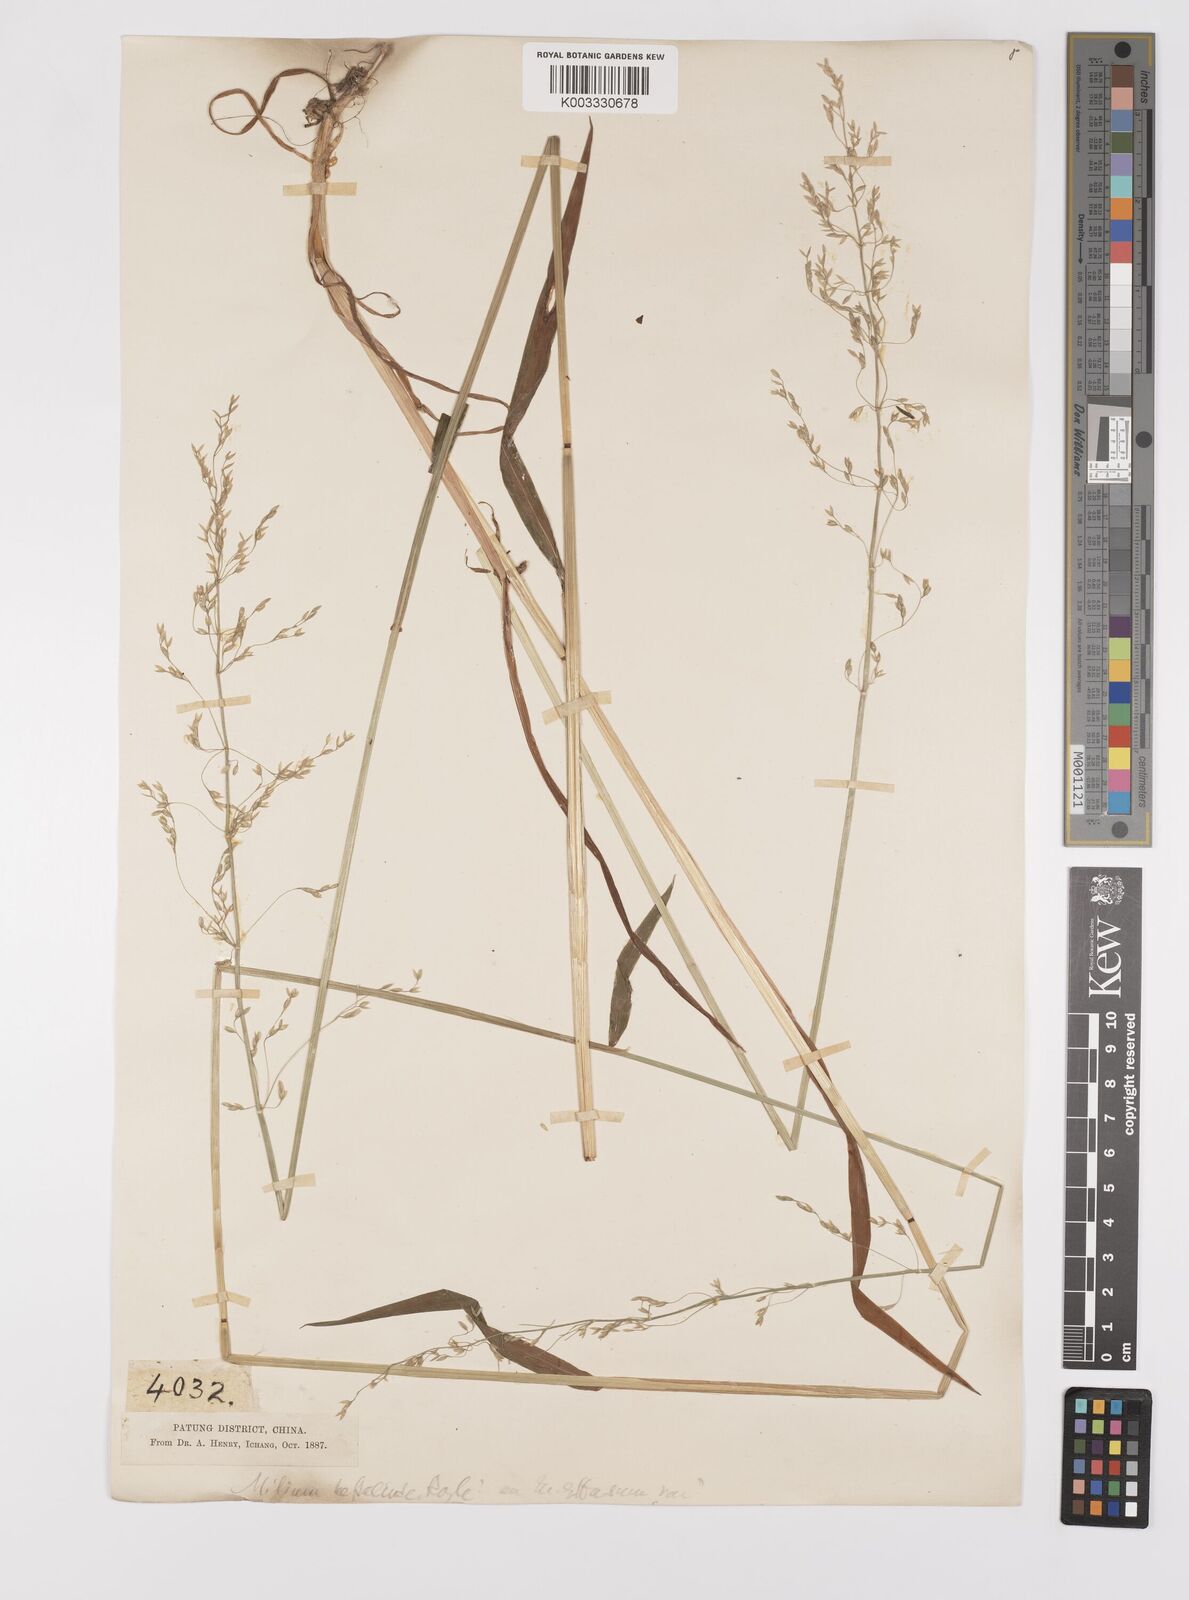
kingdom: Plantae
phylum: Tracheophyta
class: Liliopsida
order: Poales
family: Poaceae
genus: Milium
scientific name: Milium effusum
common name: Wood millet
